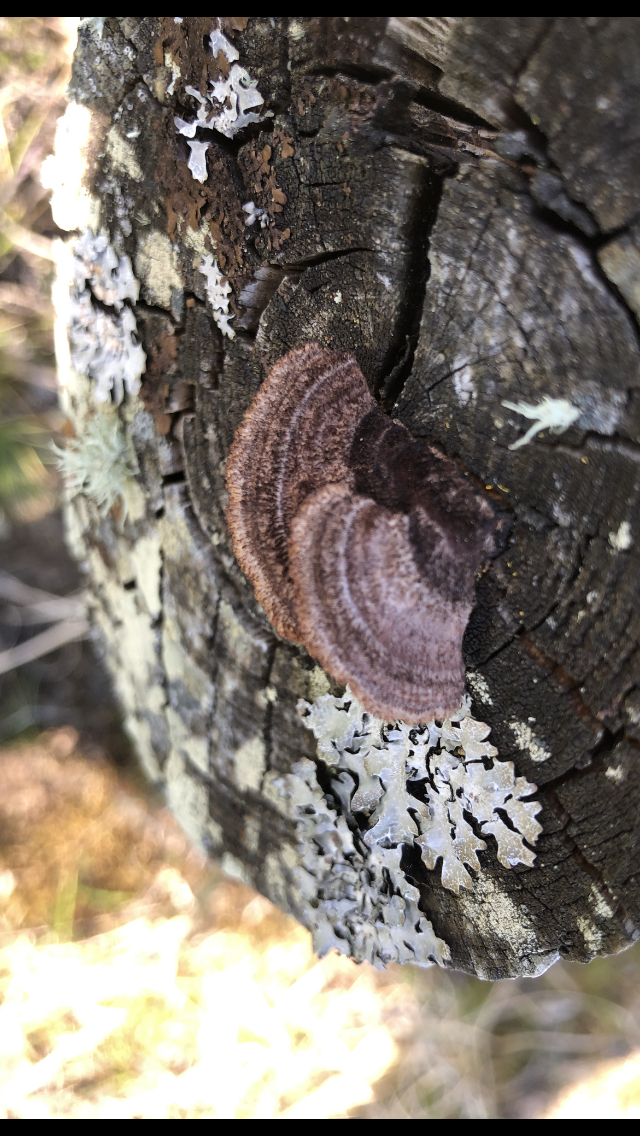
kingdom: Fungi
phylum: Basidiomycota
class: Agaricomycetes
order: Gloeophyllales
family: Gloeophyllaceae
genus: Gloeophyllum
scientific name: Gloeophyllum sepiarium
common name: fyrre-korkhat
